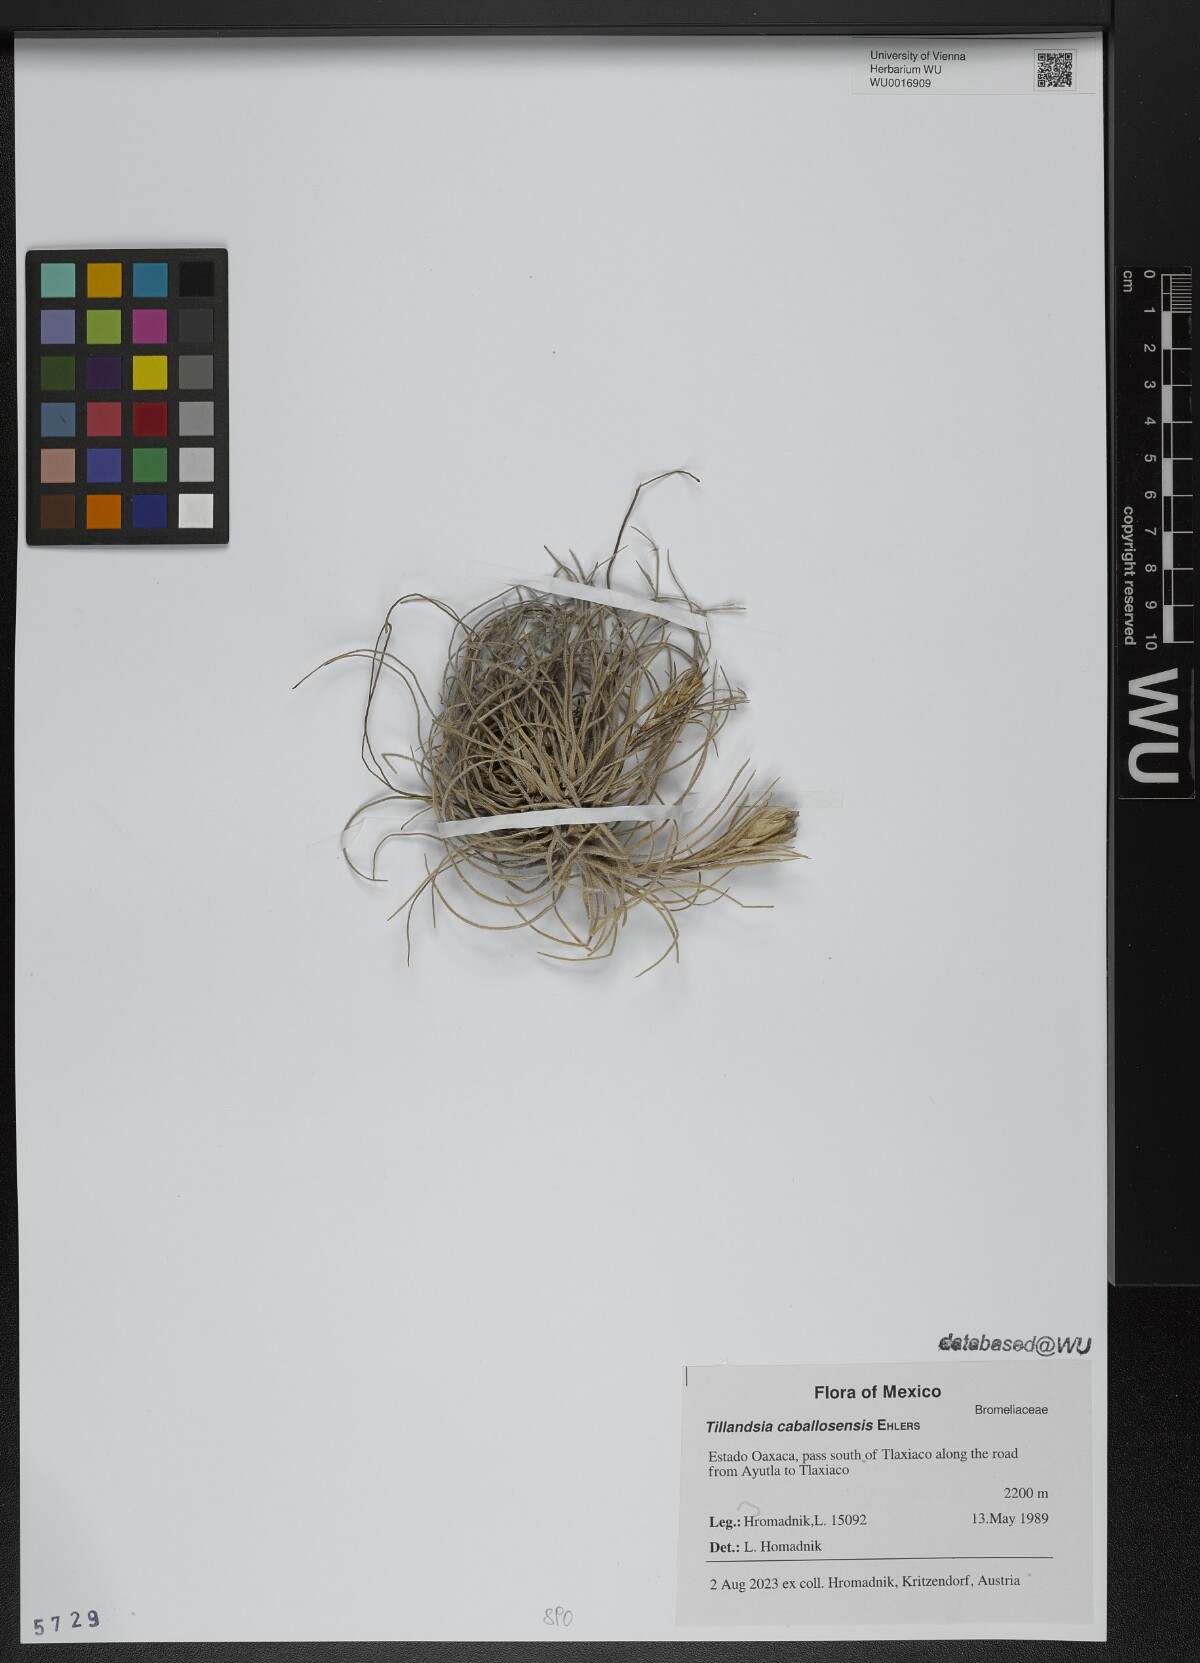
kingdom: Plantae
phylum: Tracheophyta
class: Liliopsida
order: Poales
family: Bromeliaceae
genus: Tillandsia
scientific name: Tillandsia caballosensis
